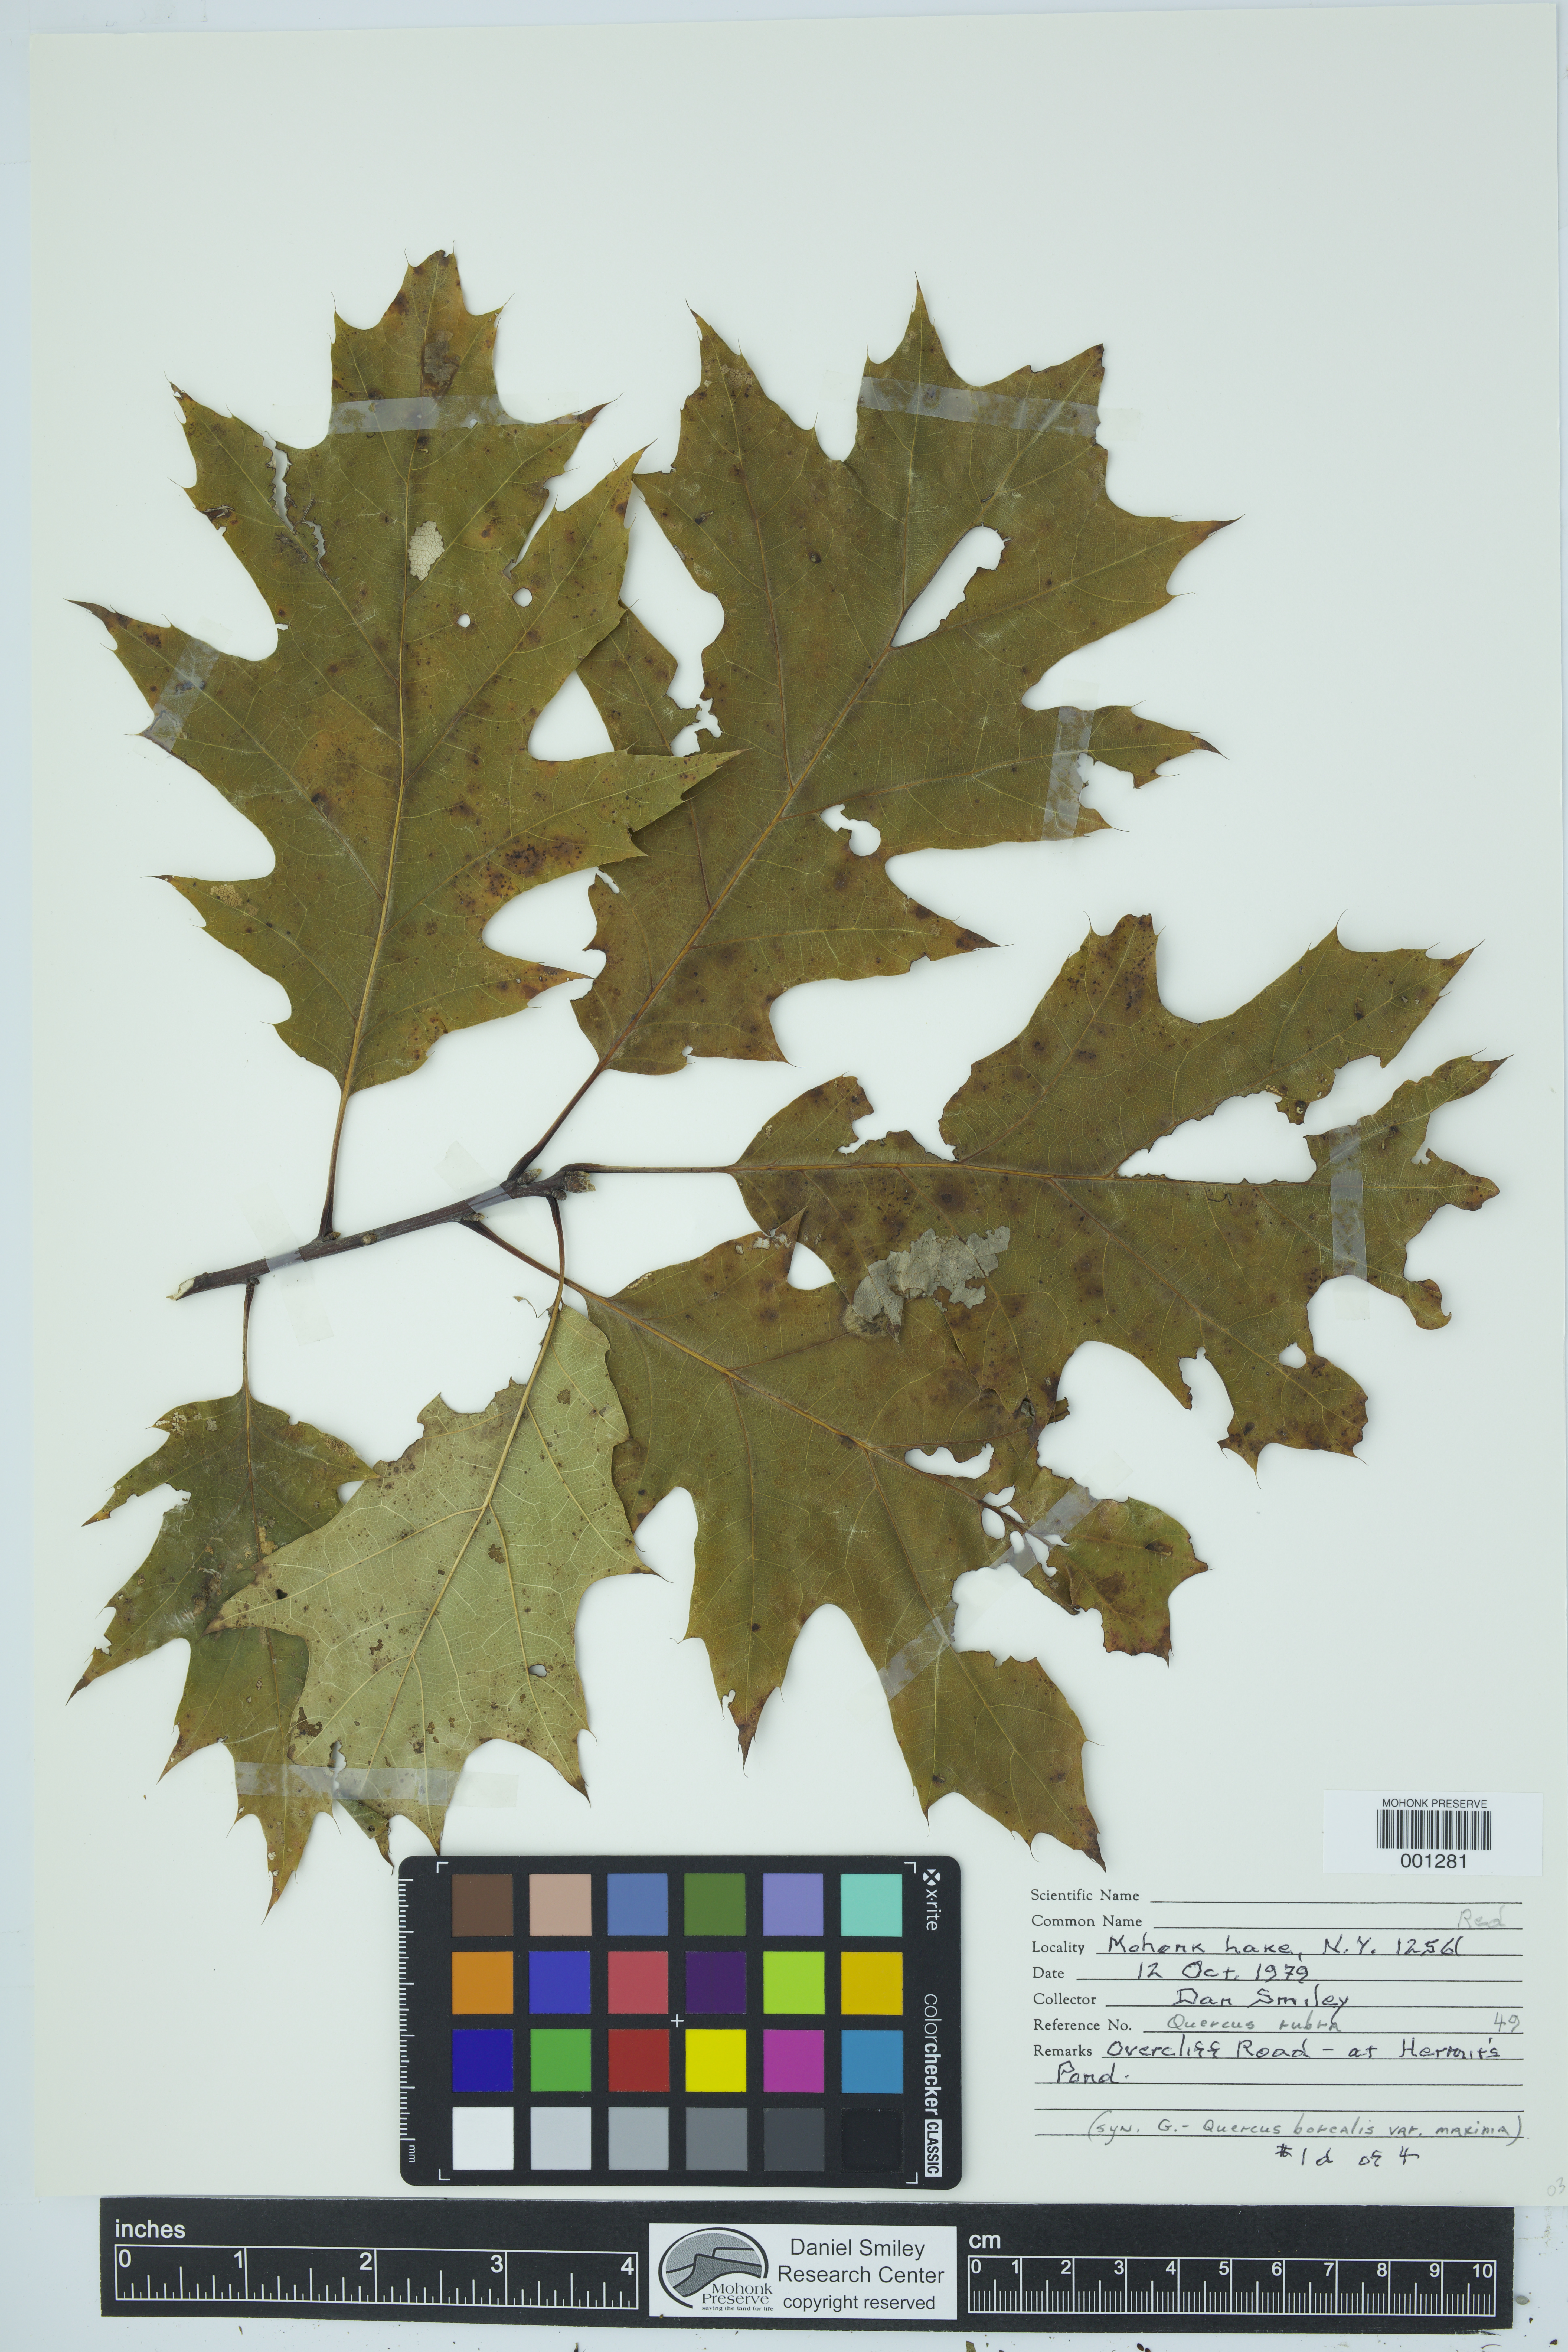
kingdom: Plantae
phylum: Tracheophyta
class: Magnoliopsida
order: Fagales
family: Fagaceae
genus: Quercus
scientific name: Quercus rubra
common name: Red oak
